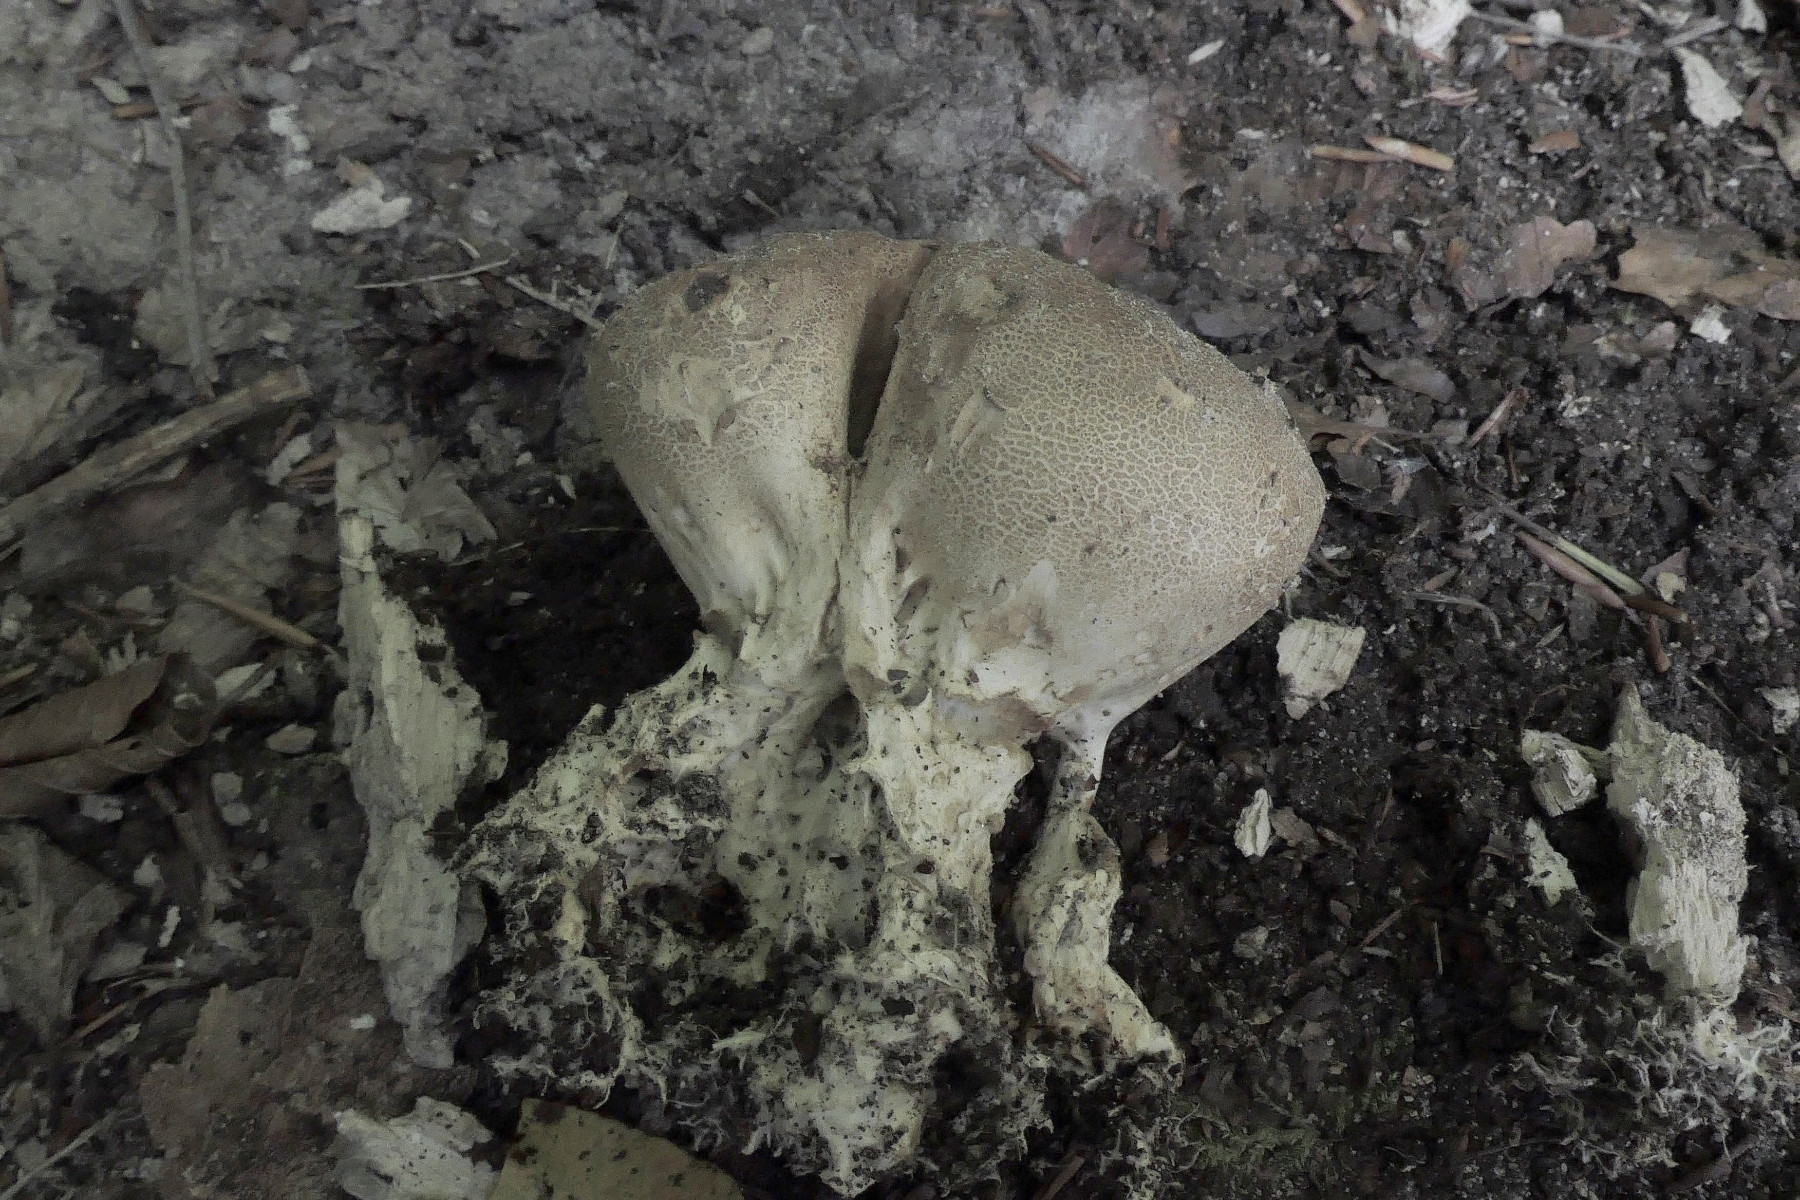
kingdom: Fungi
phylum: Basidiomycota
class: Agaricomycetes
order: Boletales
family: Sclerodermataceae
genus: Scleroderma
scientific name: Scleroderma verrucosum
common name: stilket bruskbold
